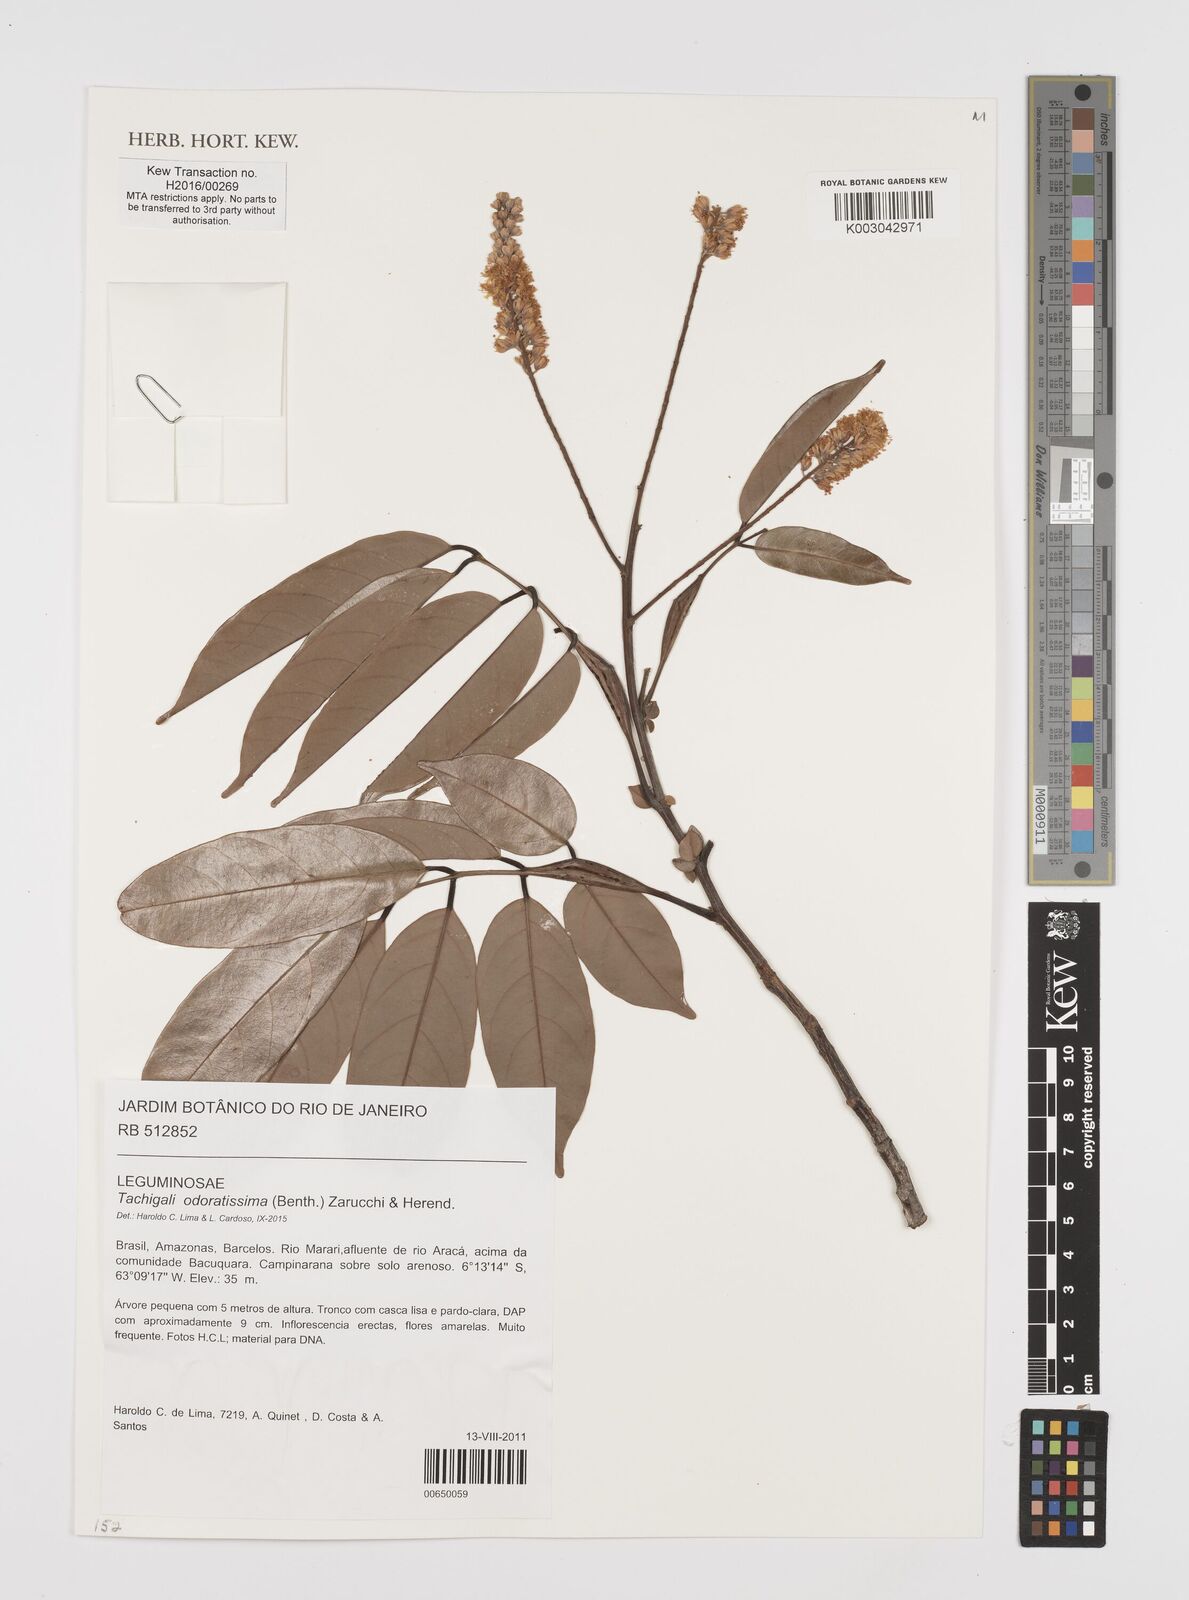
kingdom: Plantae
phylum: Tracheophyta
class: Magnoliopsida
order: Fabales
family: Fabaceae
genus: Tachigali
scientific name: Tachigali odoratissima
